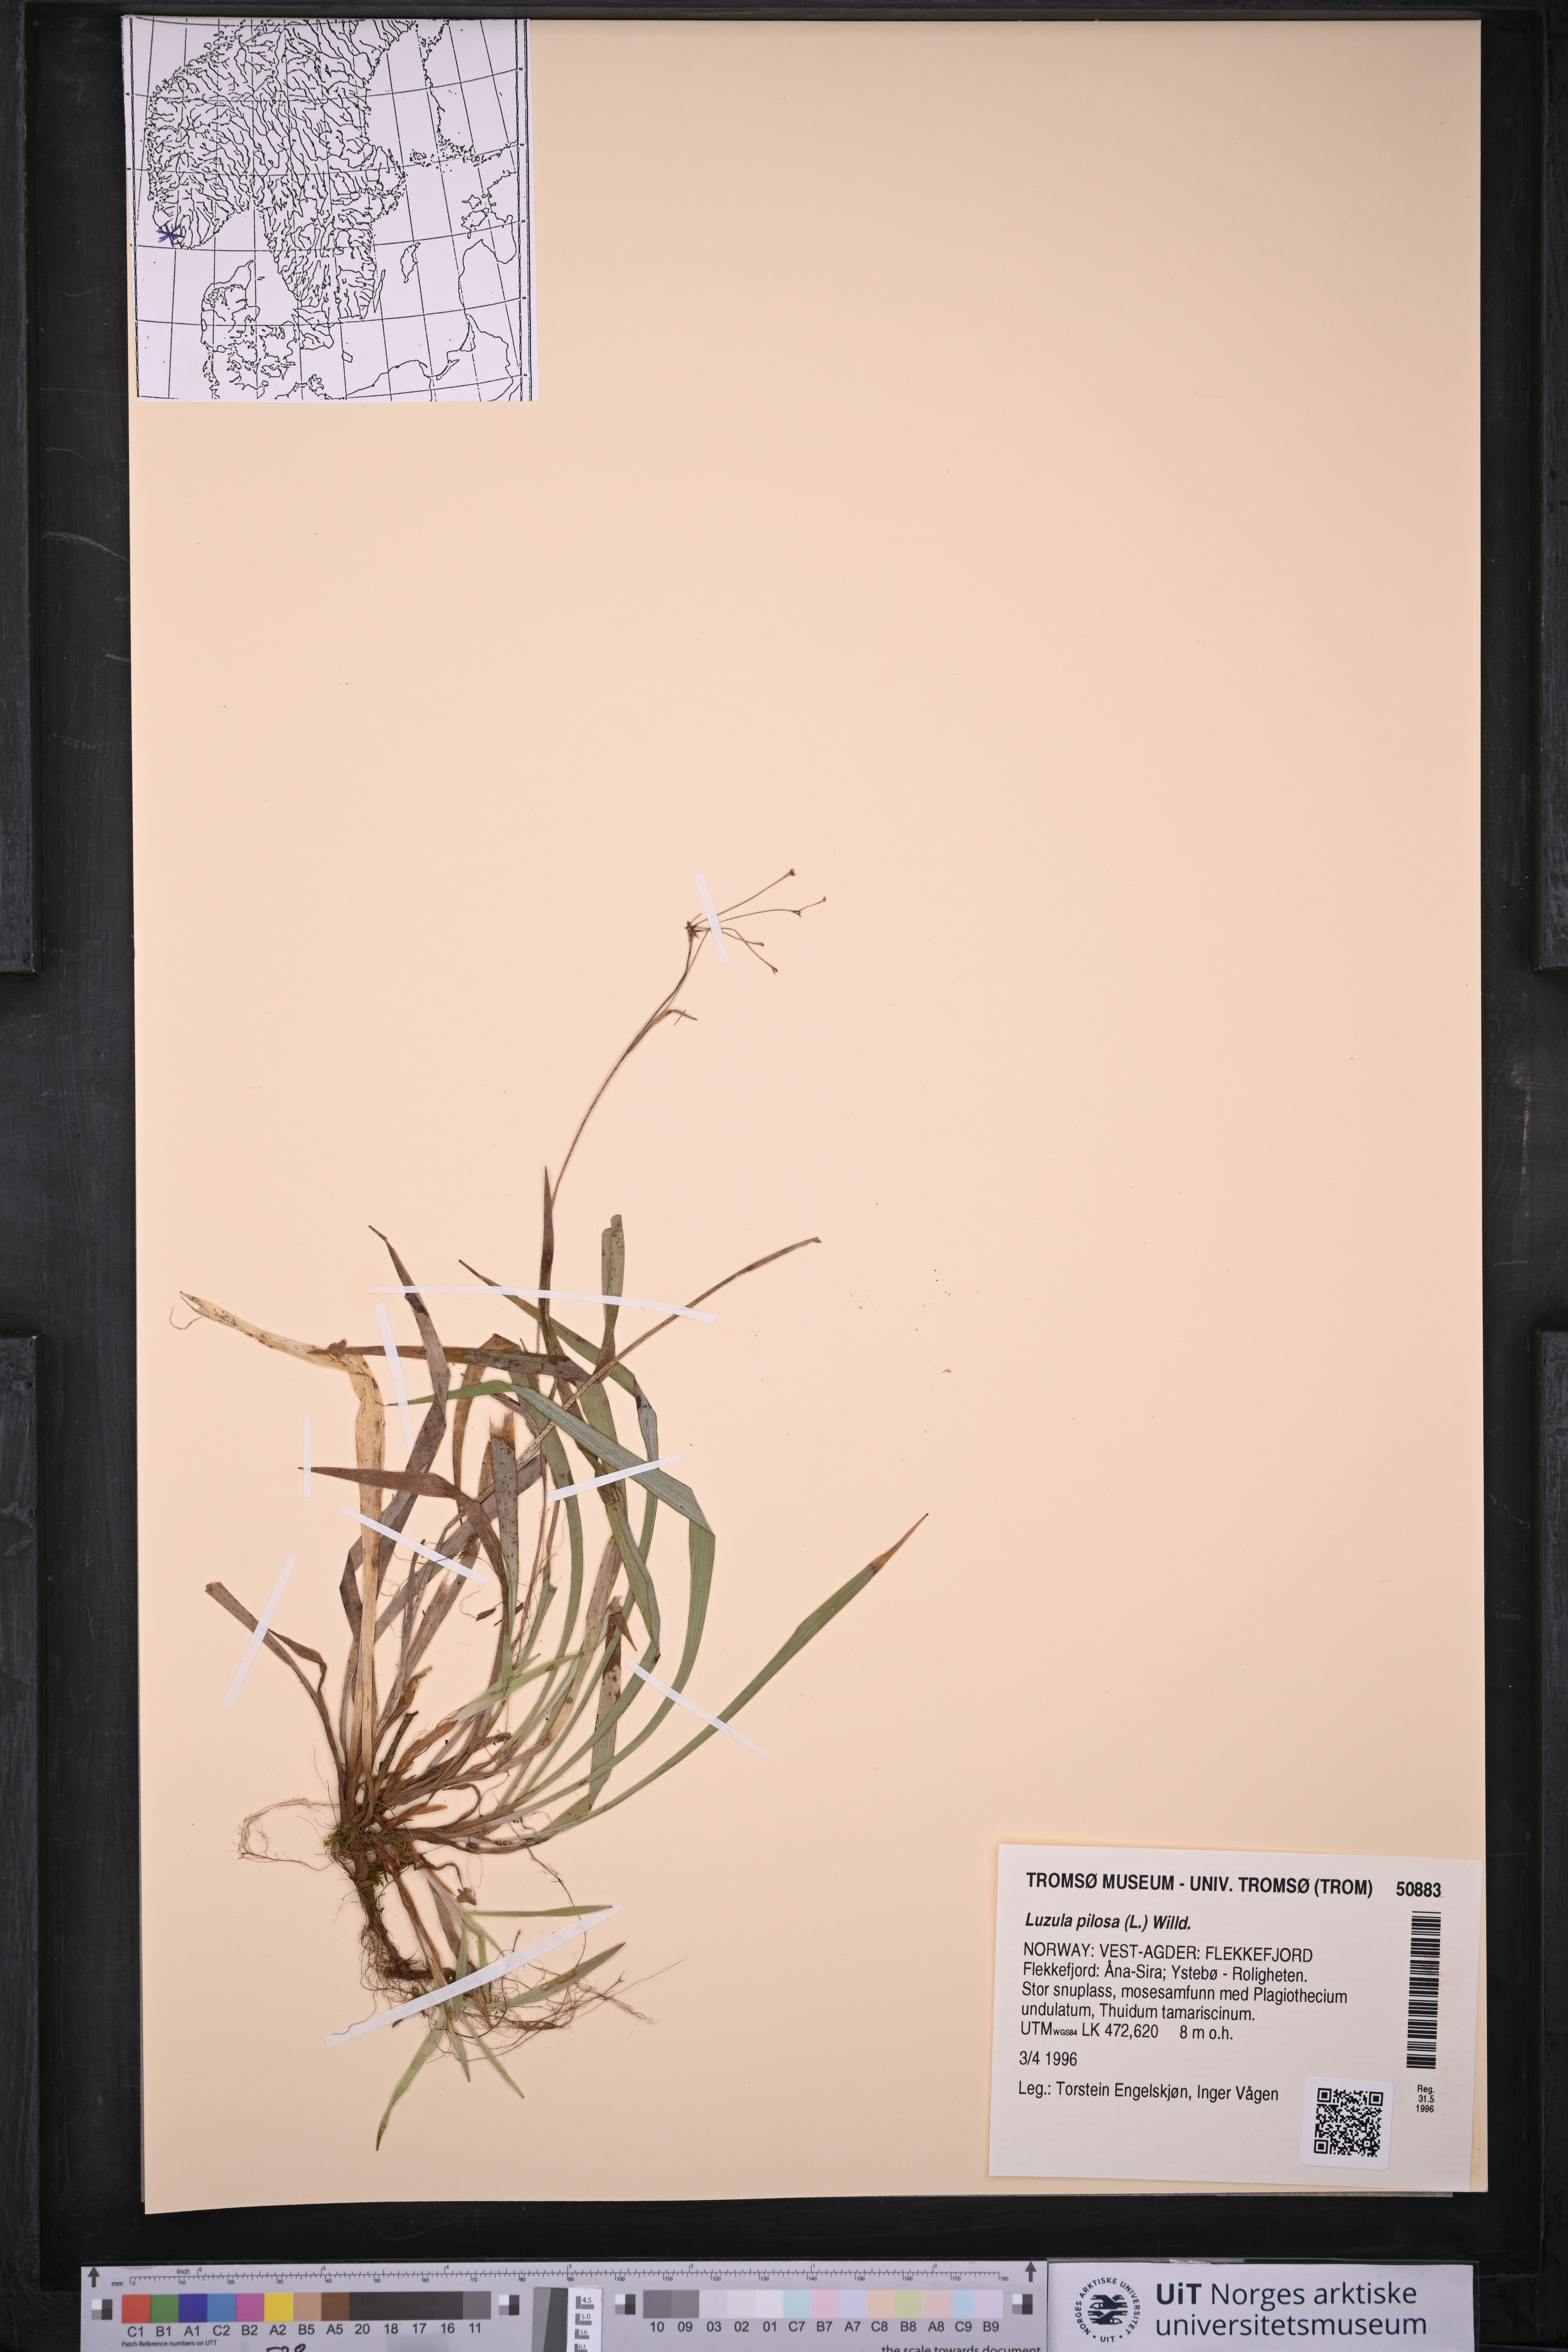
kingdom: Plantae
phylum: Tracheophyta
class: Liliopsida
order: Poales
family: Juncaceae
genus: Luzula
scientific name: Luzula pilosa
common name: Hairy wood-rush
